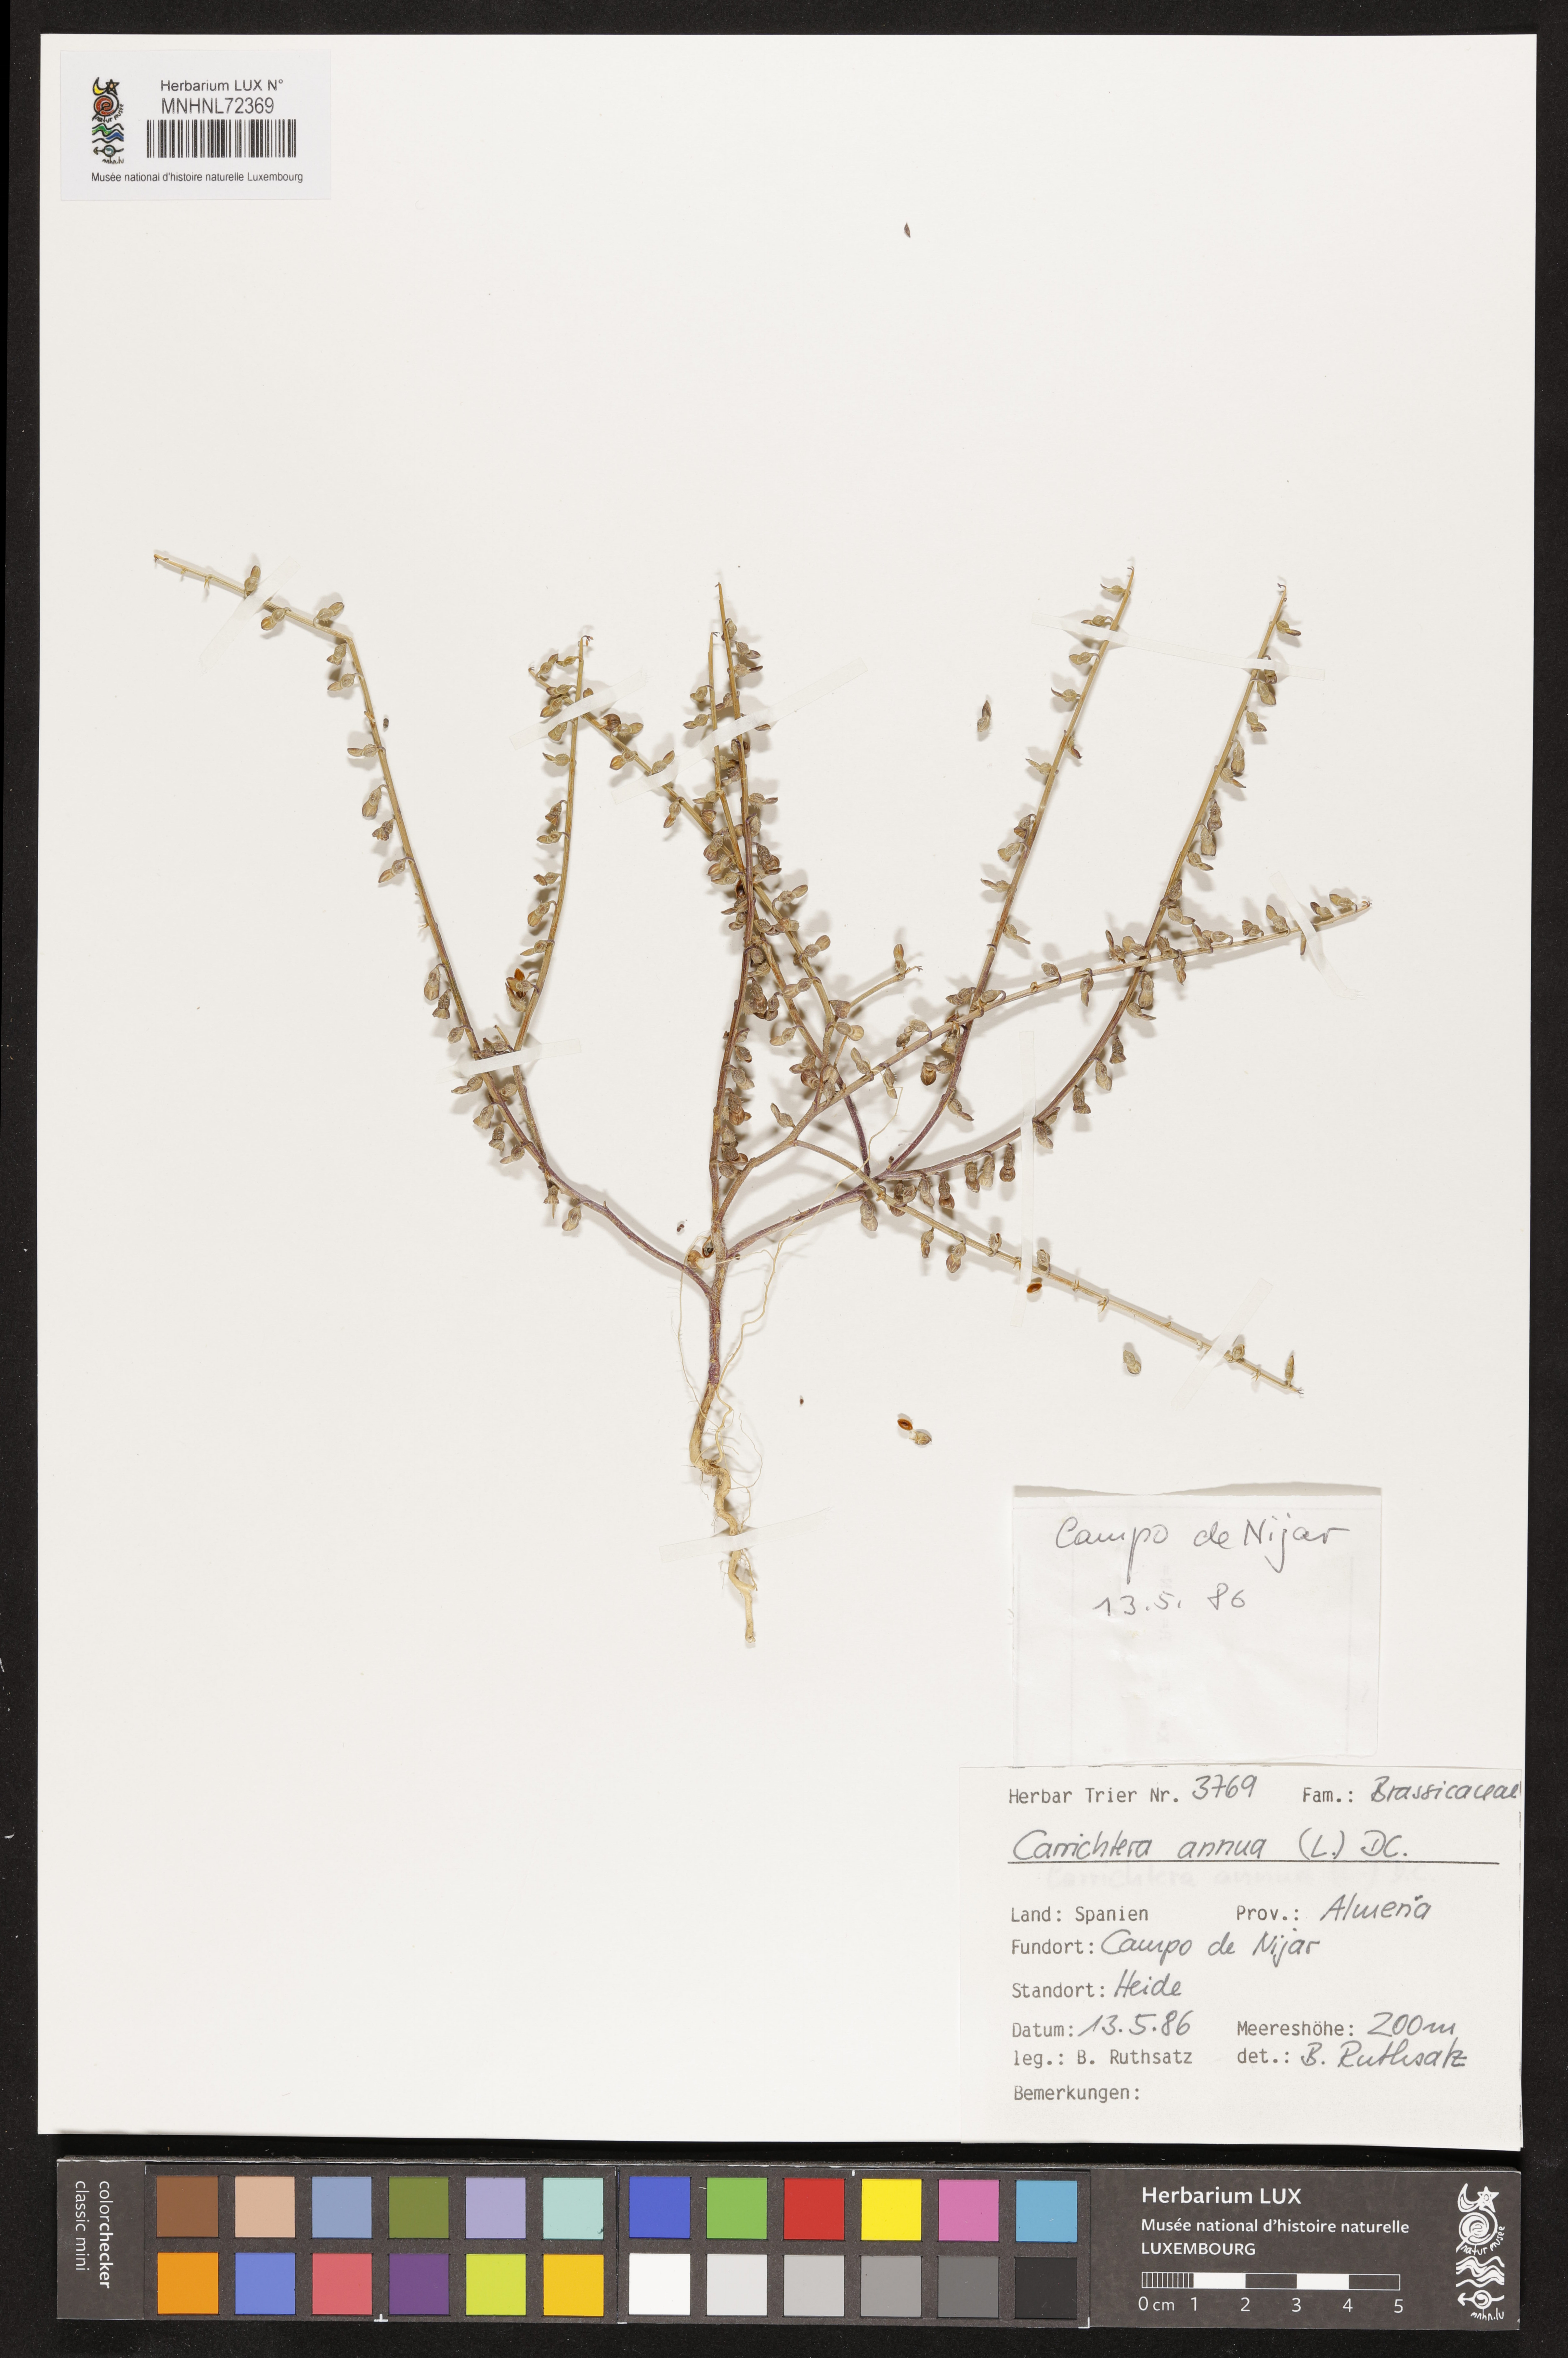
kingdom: Plantae
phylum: Tracheophyta
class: Magnoliopsida
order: Brassicales
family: Brassicaceae
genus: Carrichtera
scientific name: Carrichtera annua
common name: Cress rocket
